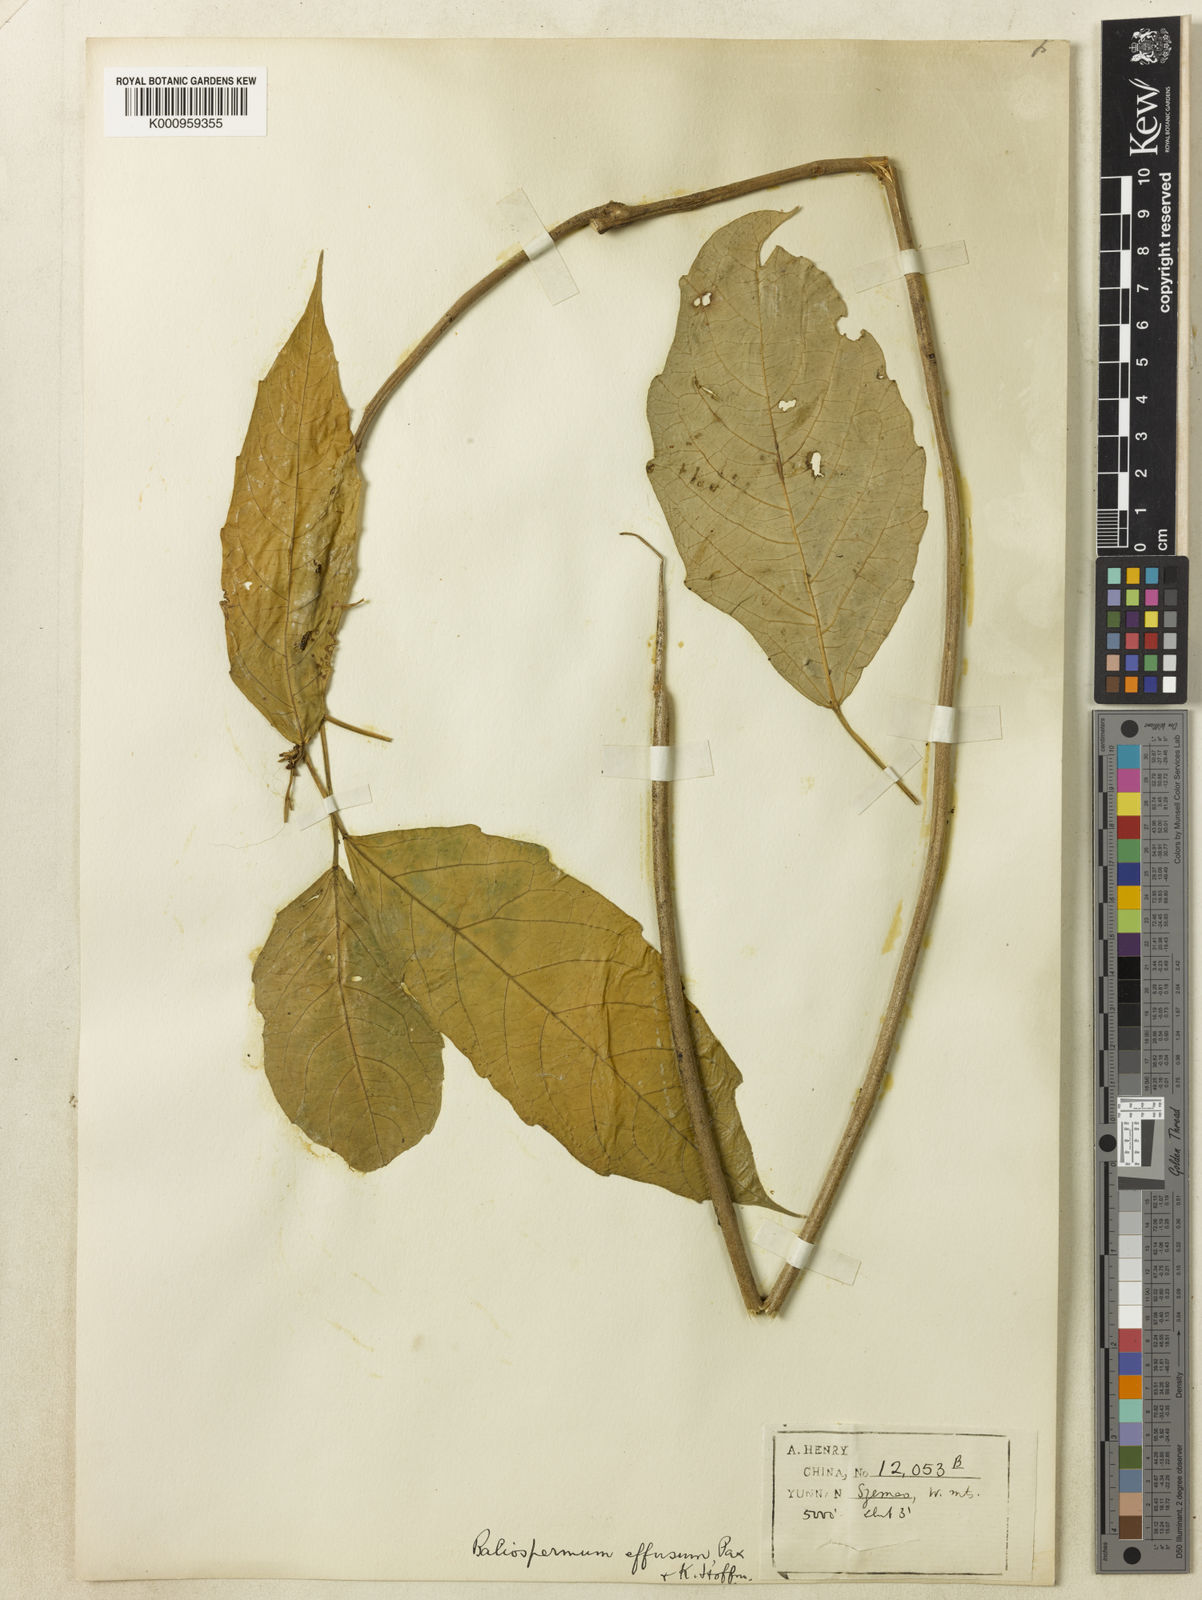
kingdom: Plantae
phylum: Tracheophyta
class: Magnoliopsida
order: Malpighiales
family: Euphorbiaceae
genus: Baliospermum
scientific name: Baliospermum calycinum
